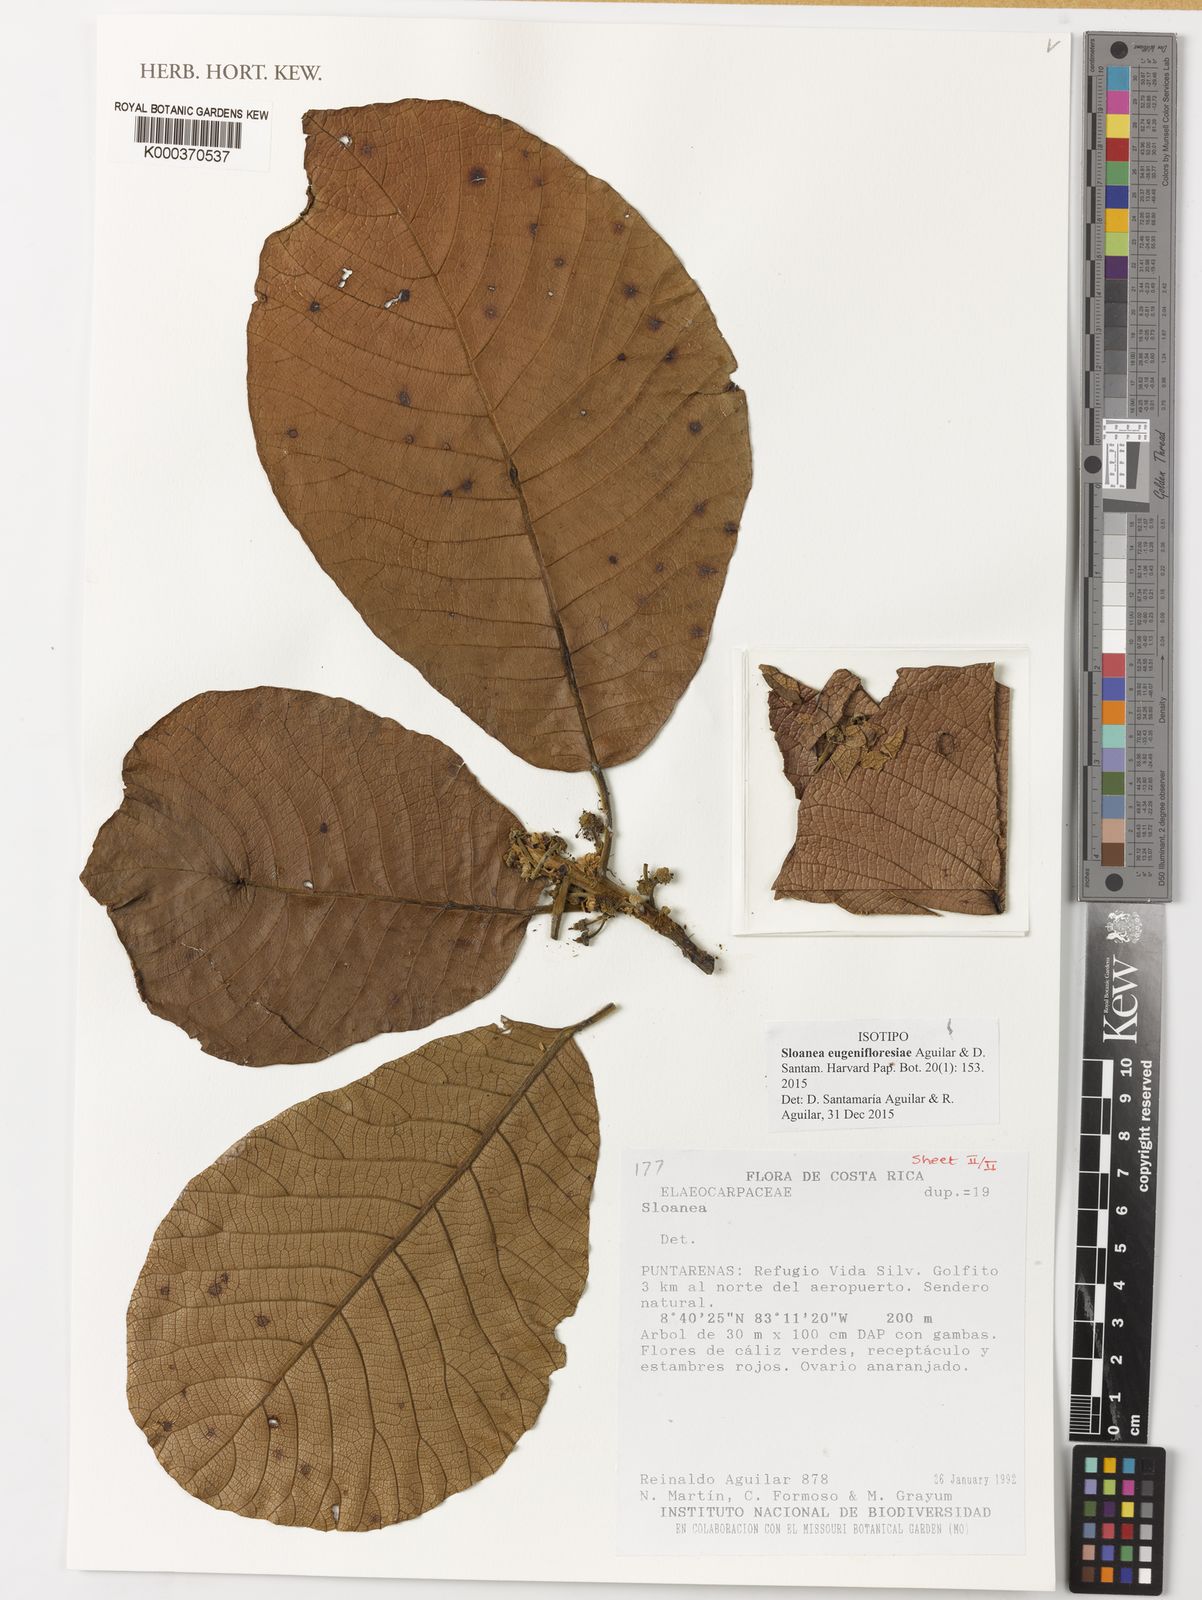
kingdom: Plantae
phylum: Tracheophyta
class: Magnoliopsida
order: Oxalidales
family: Elaeocarpaceae
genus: Sloanea
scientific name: Sloanea eugenifloresiae
